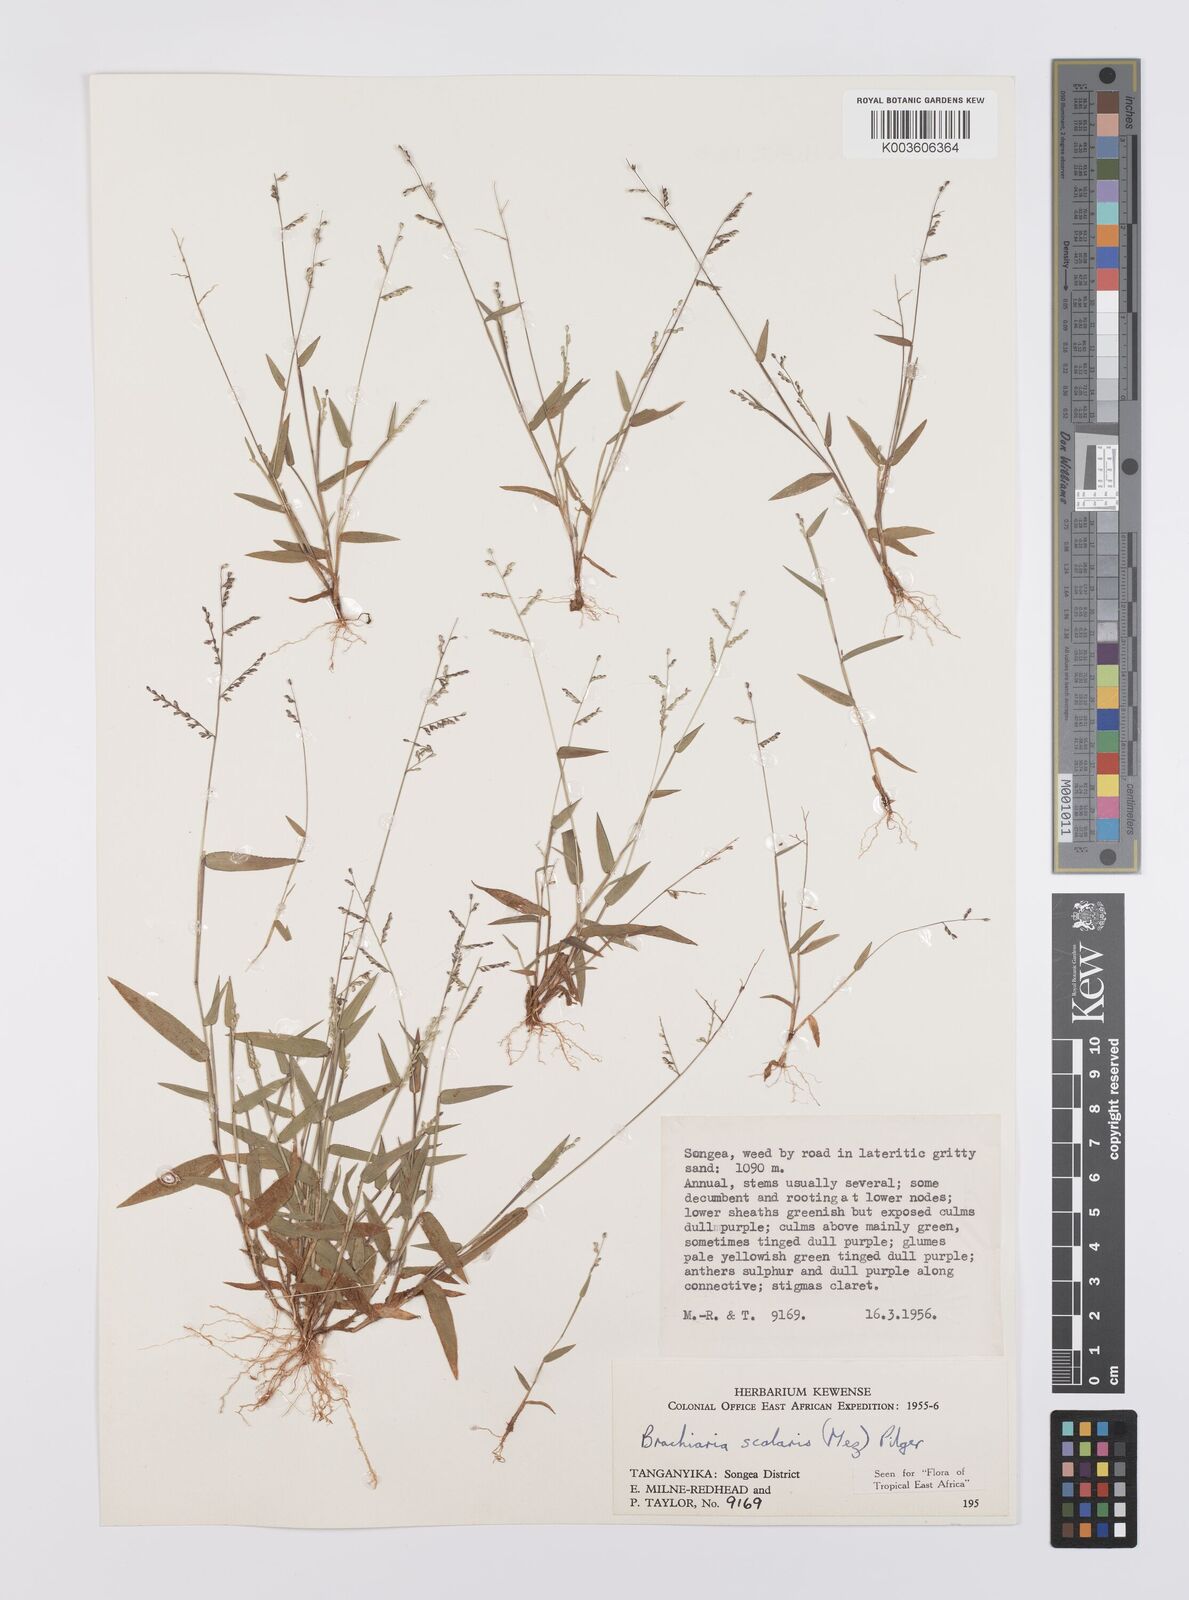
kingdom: Plantae
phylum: Tracheophyta
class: Liliopsida
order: Poales
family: Poaceae
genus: Urochloa
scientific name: Urochloa comata
